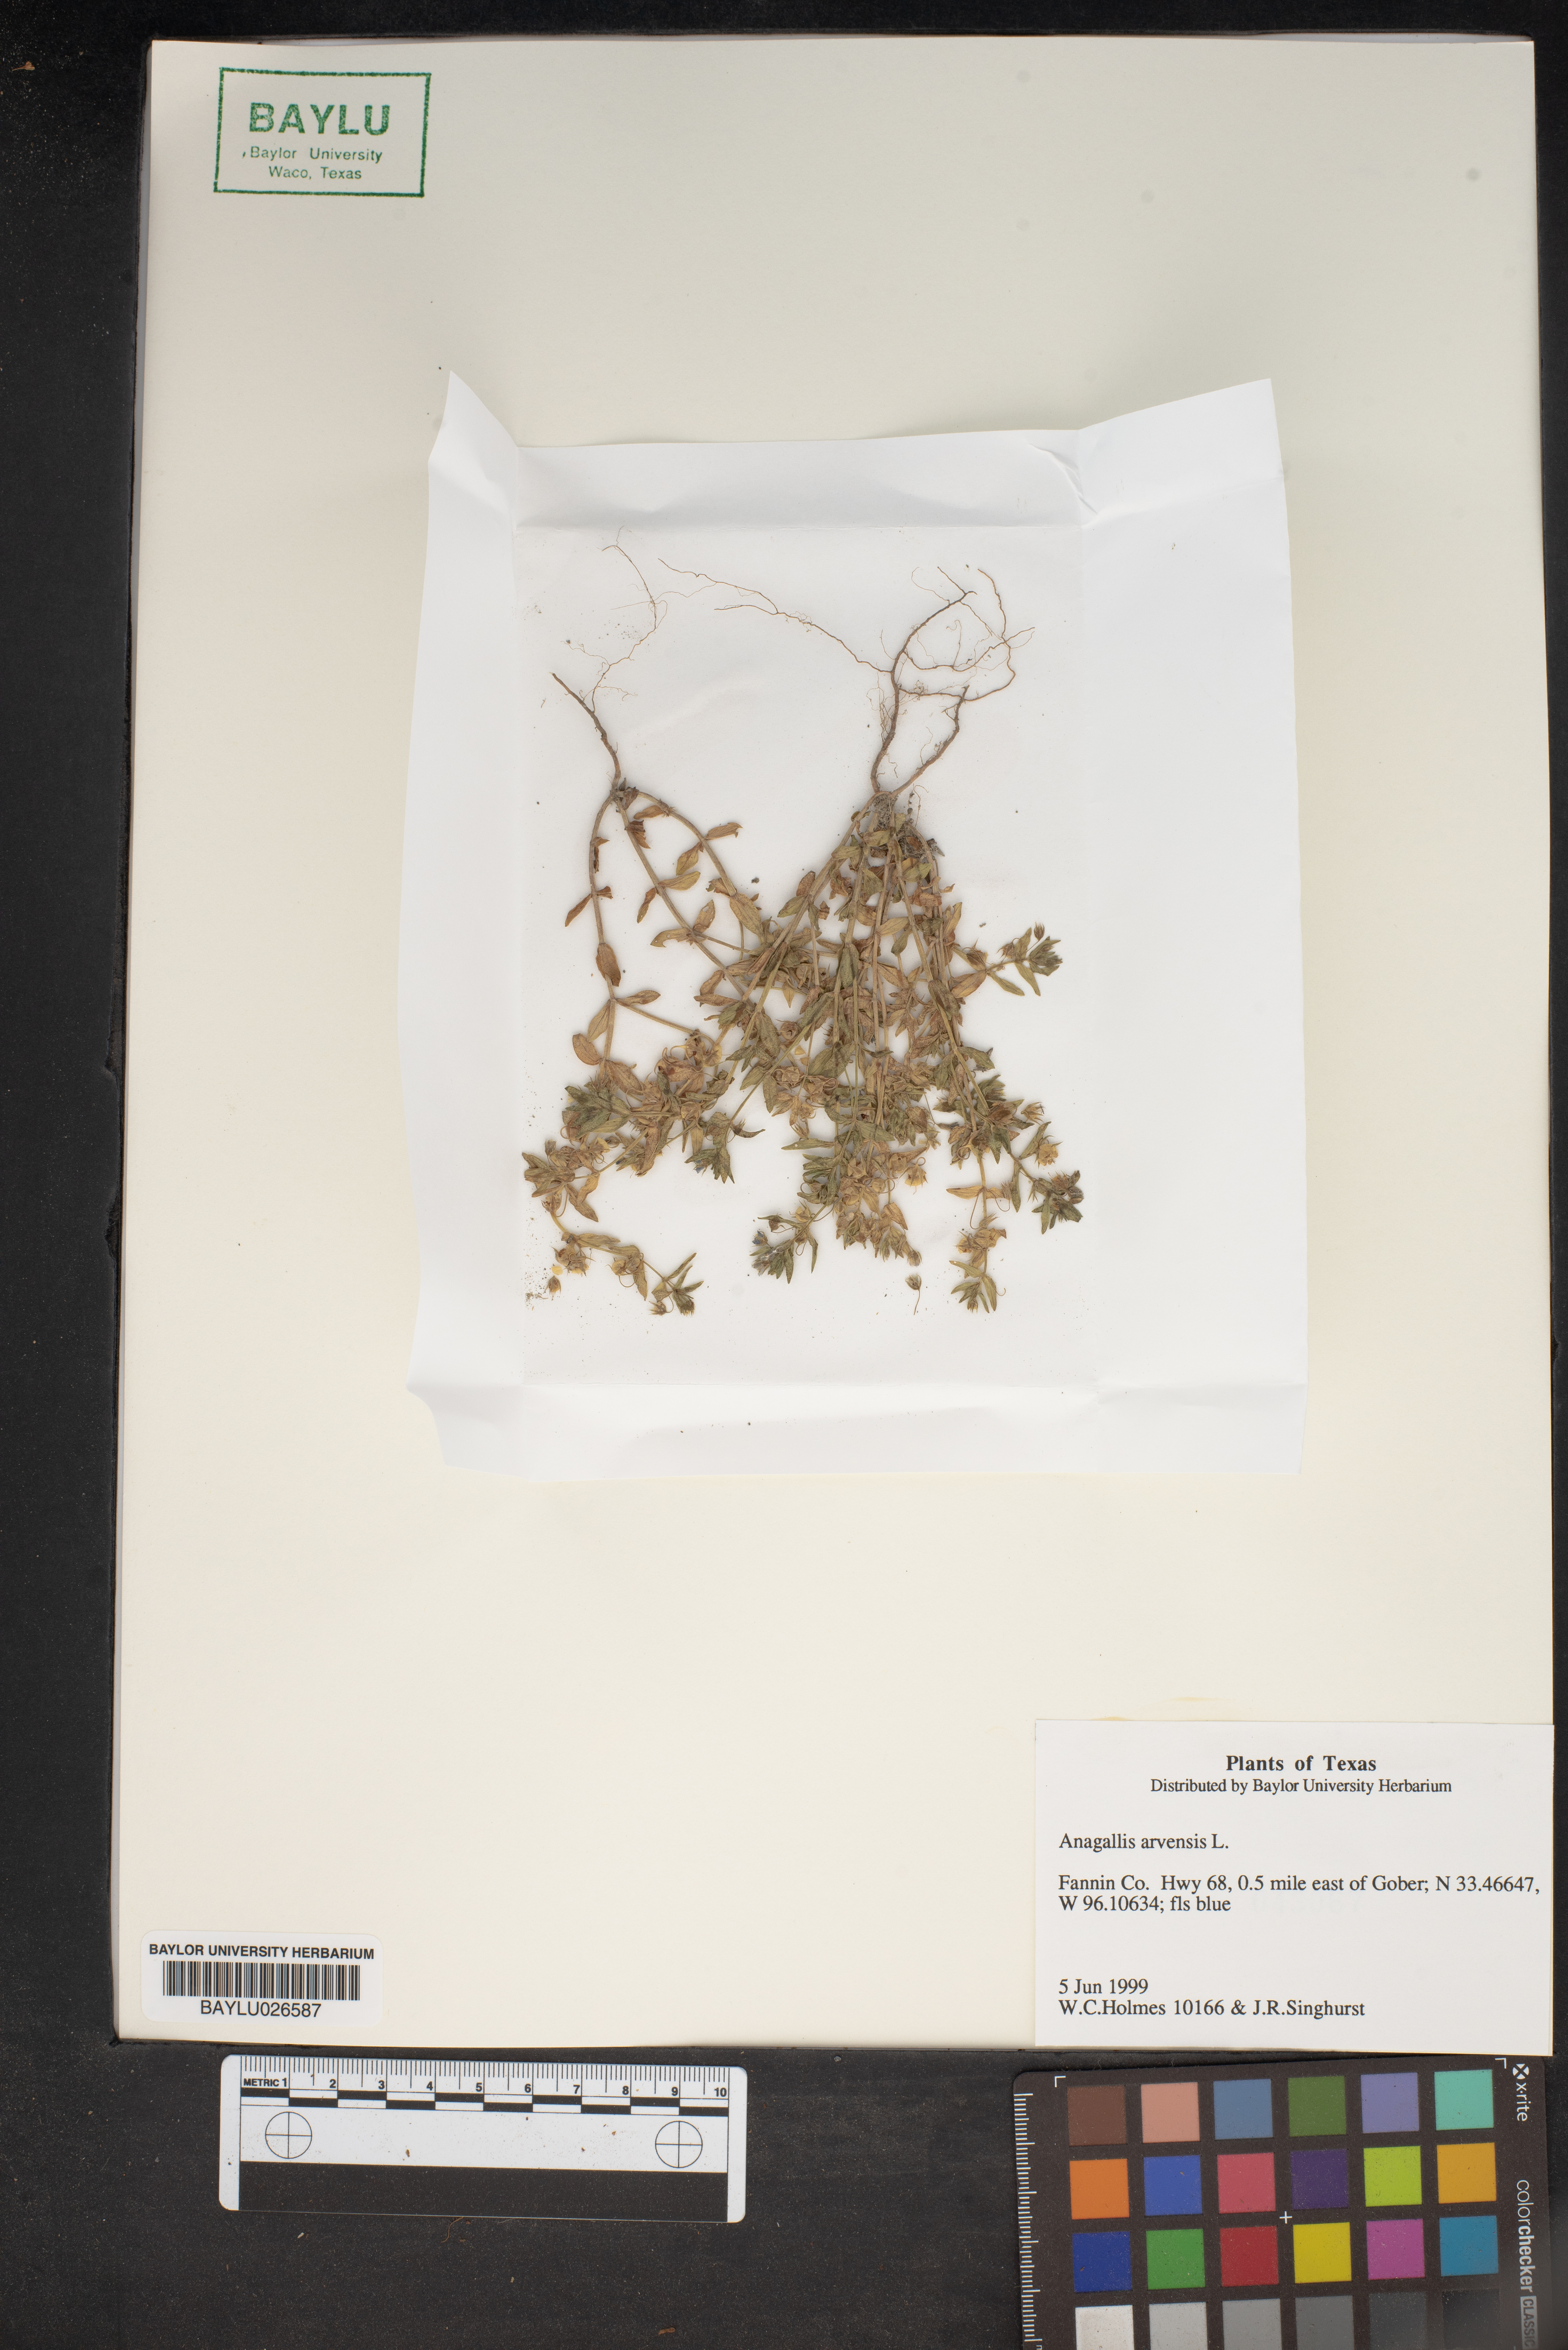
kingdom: Plantae
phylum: Tracheophyta
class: Magnoliopsida
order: Ericales
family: Primulaceae
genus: Lysimachia
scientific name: Lysimachia arvensis
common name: Scarlet pimpernel
